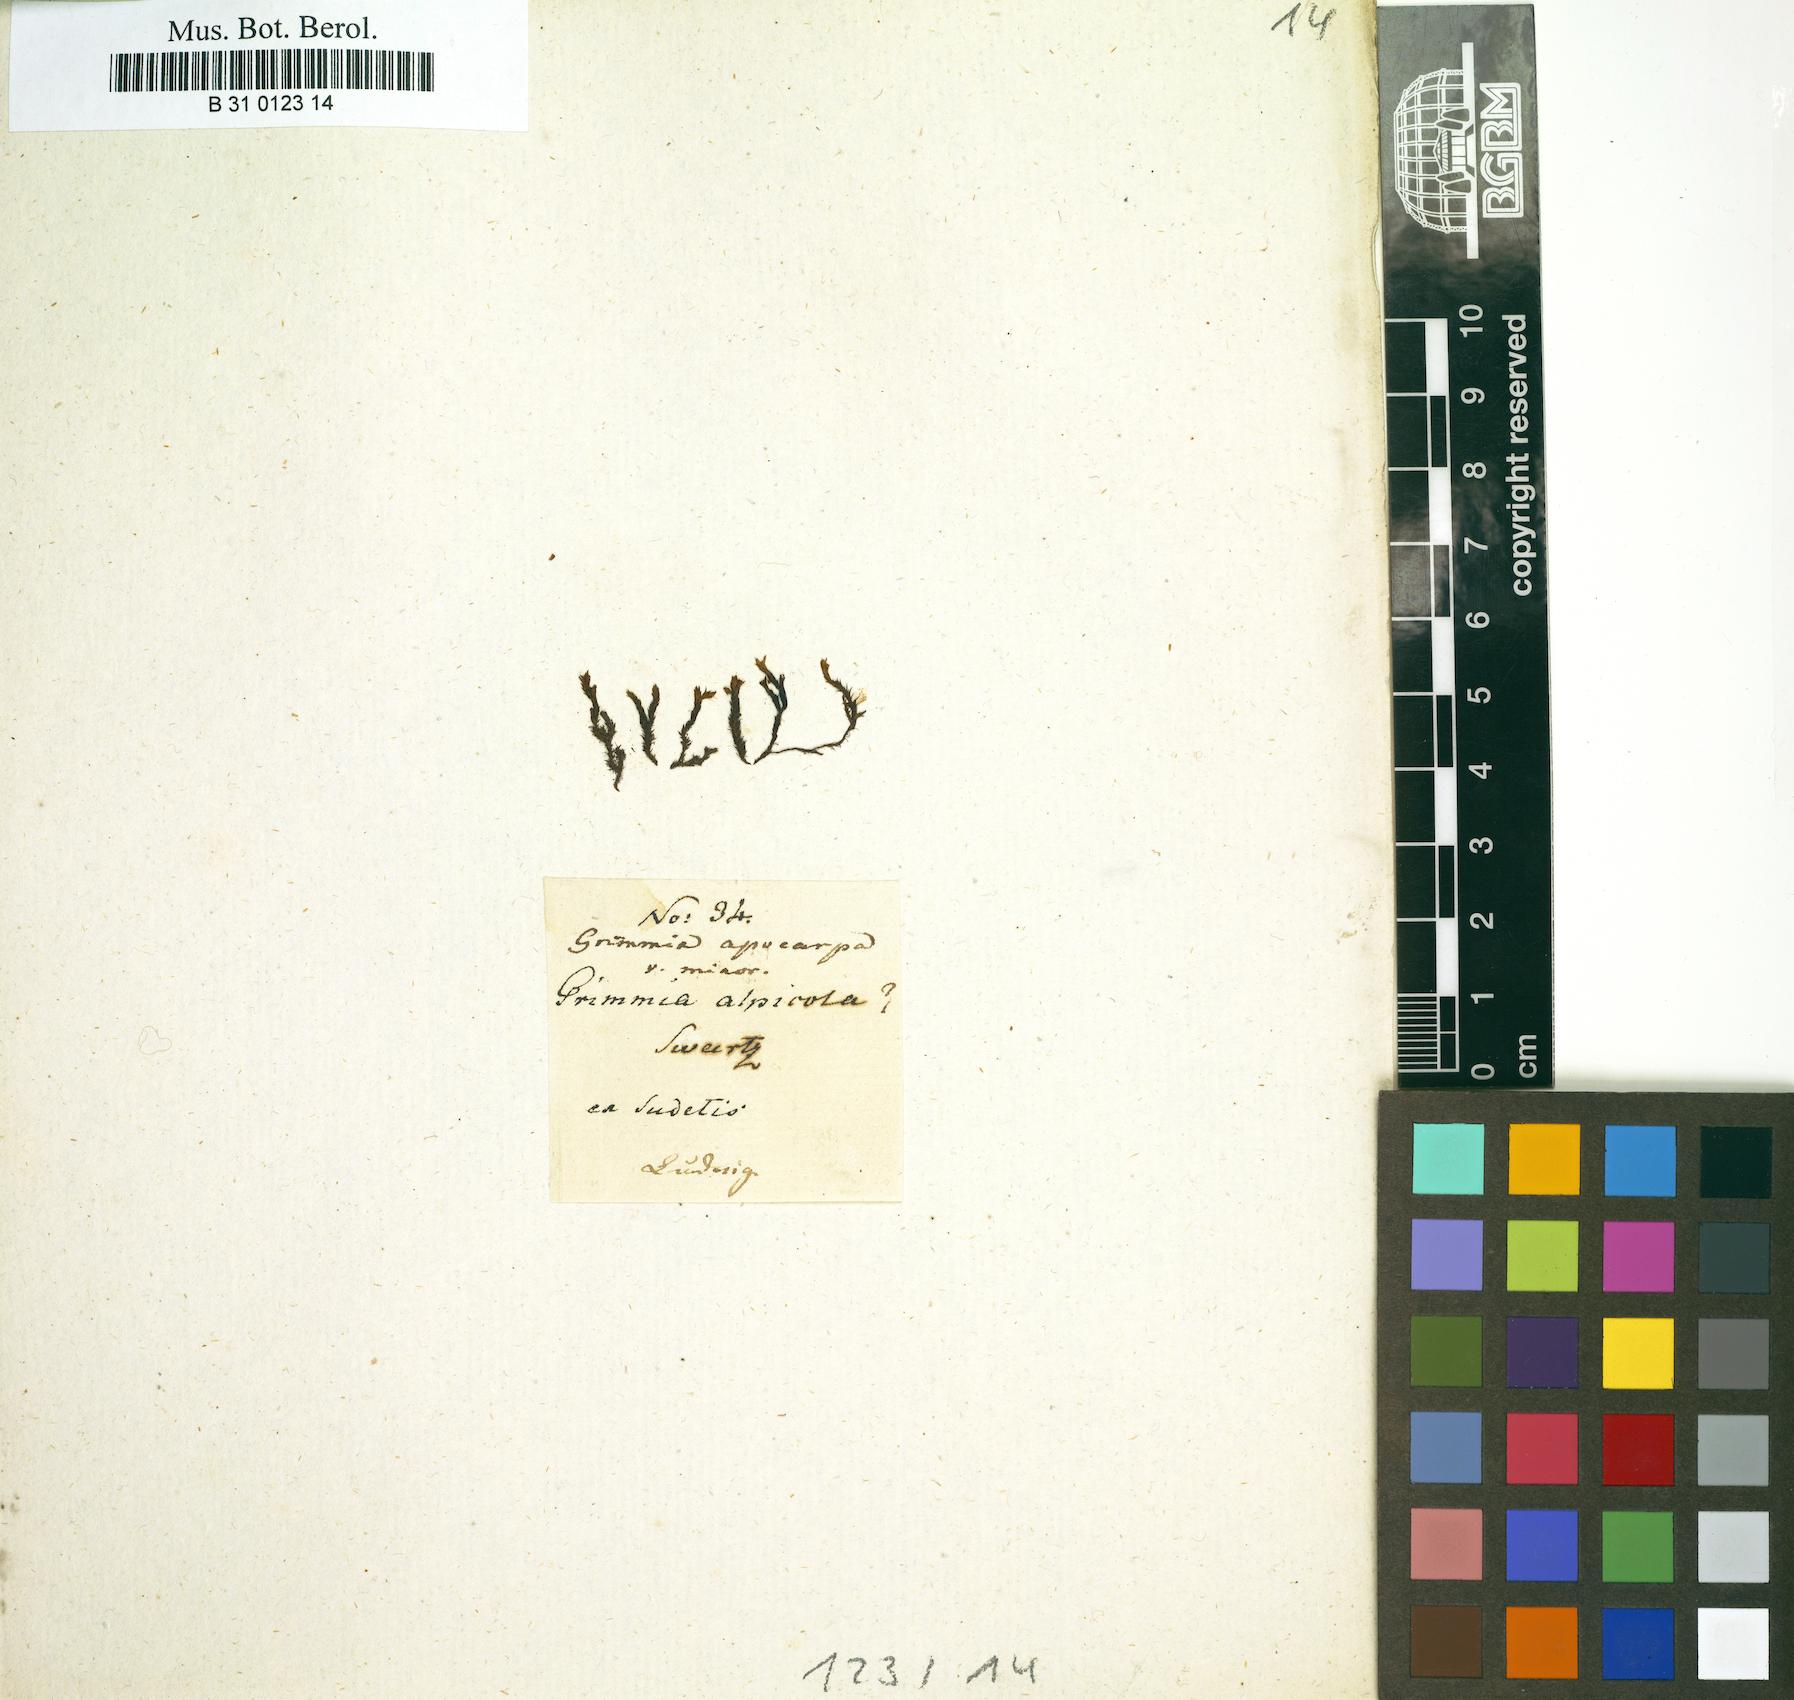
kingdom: Plantae
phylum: Bryophyta
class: Bryopsida
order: Grimmiales
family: Grimmiaceae
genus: Schistidium
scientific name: Schistidium apocarpum
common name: Radiate bloom moss
